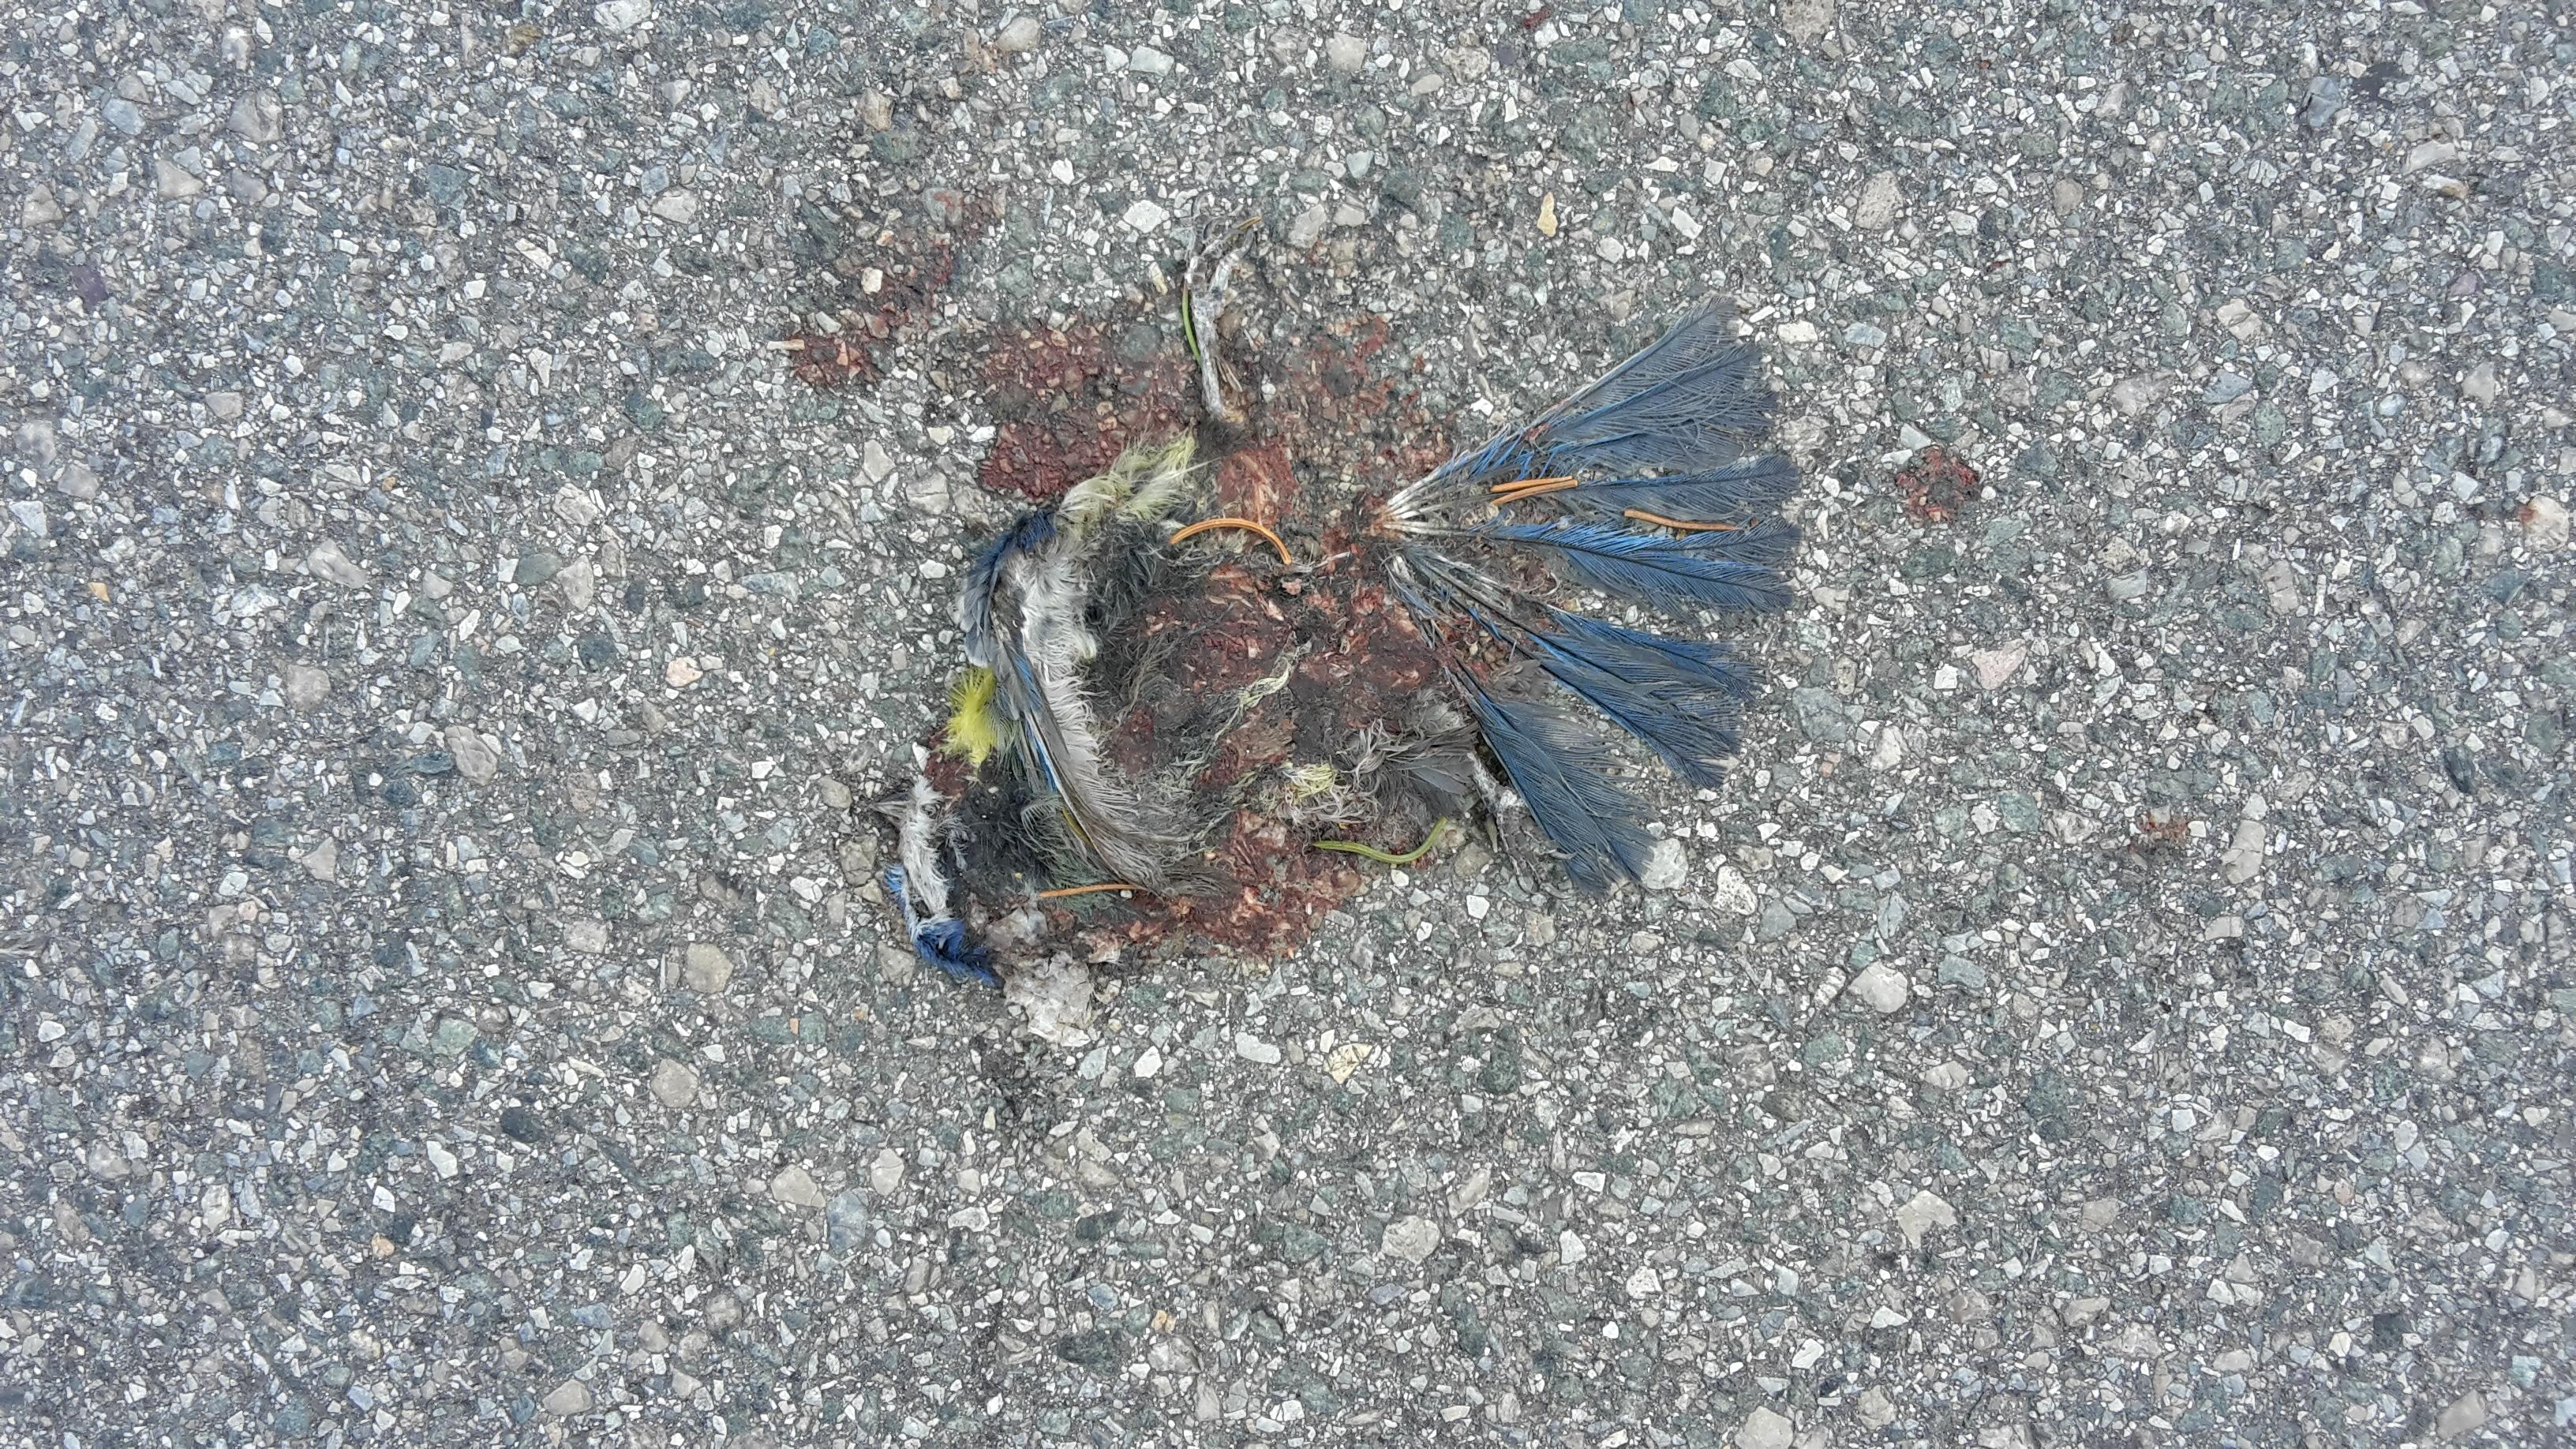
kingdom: Animalia
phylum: Chordata
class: Aves
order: Passeriformes
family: Paridae
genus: Cyanistes
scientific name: Cyanistes caeruleus
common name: Eurasian blue tit
